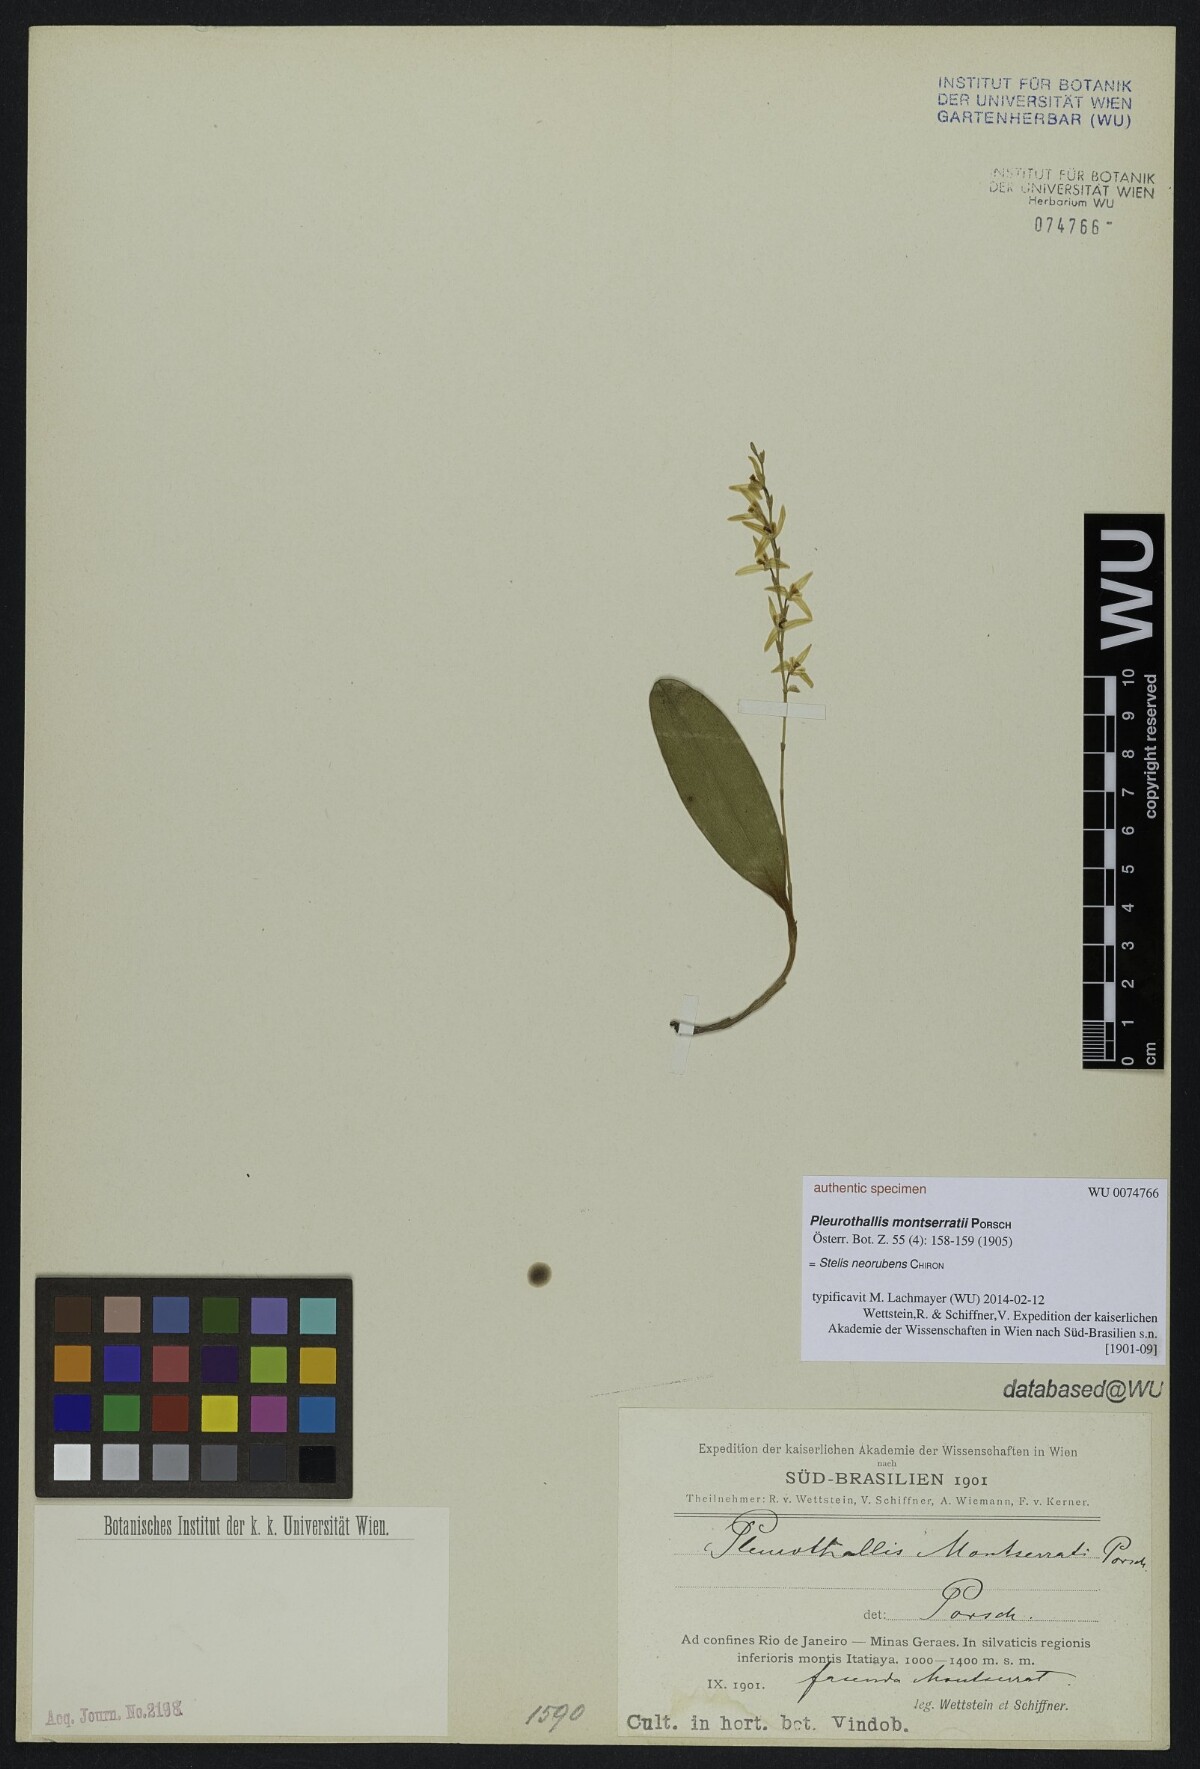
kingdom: Plantae
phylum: Tracheophyta
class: Liliopsida
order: Asparagales
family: Orchidaceae
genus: Stelis
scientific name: Stelis montserratii
